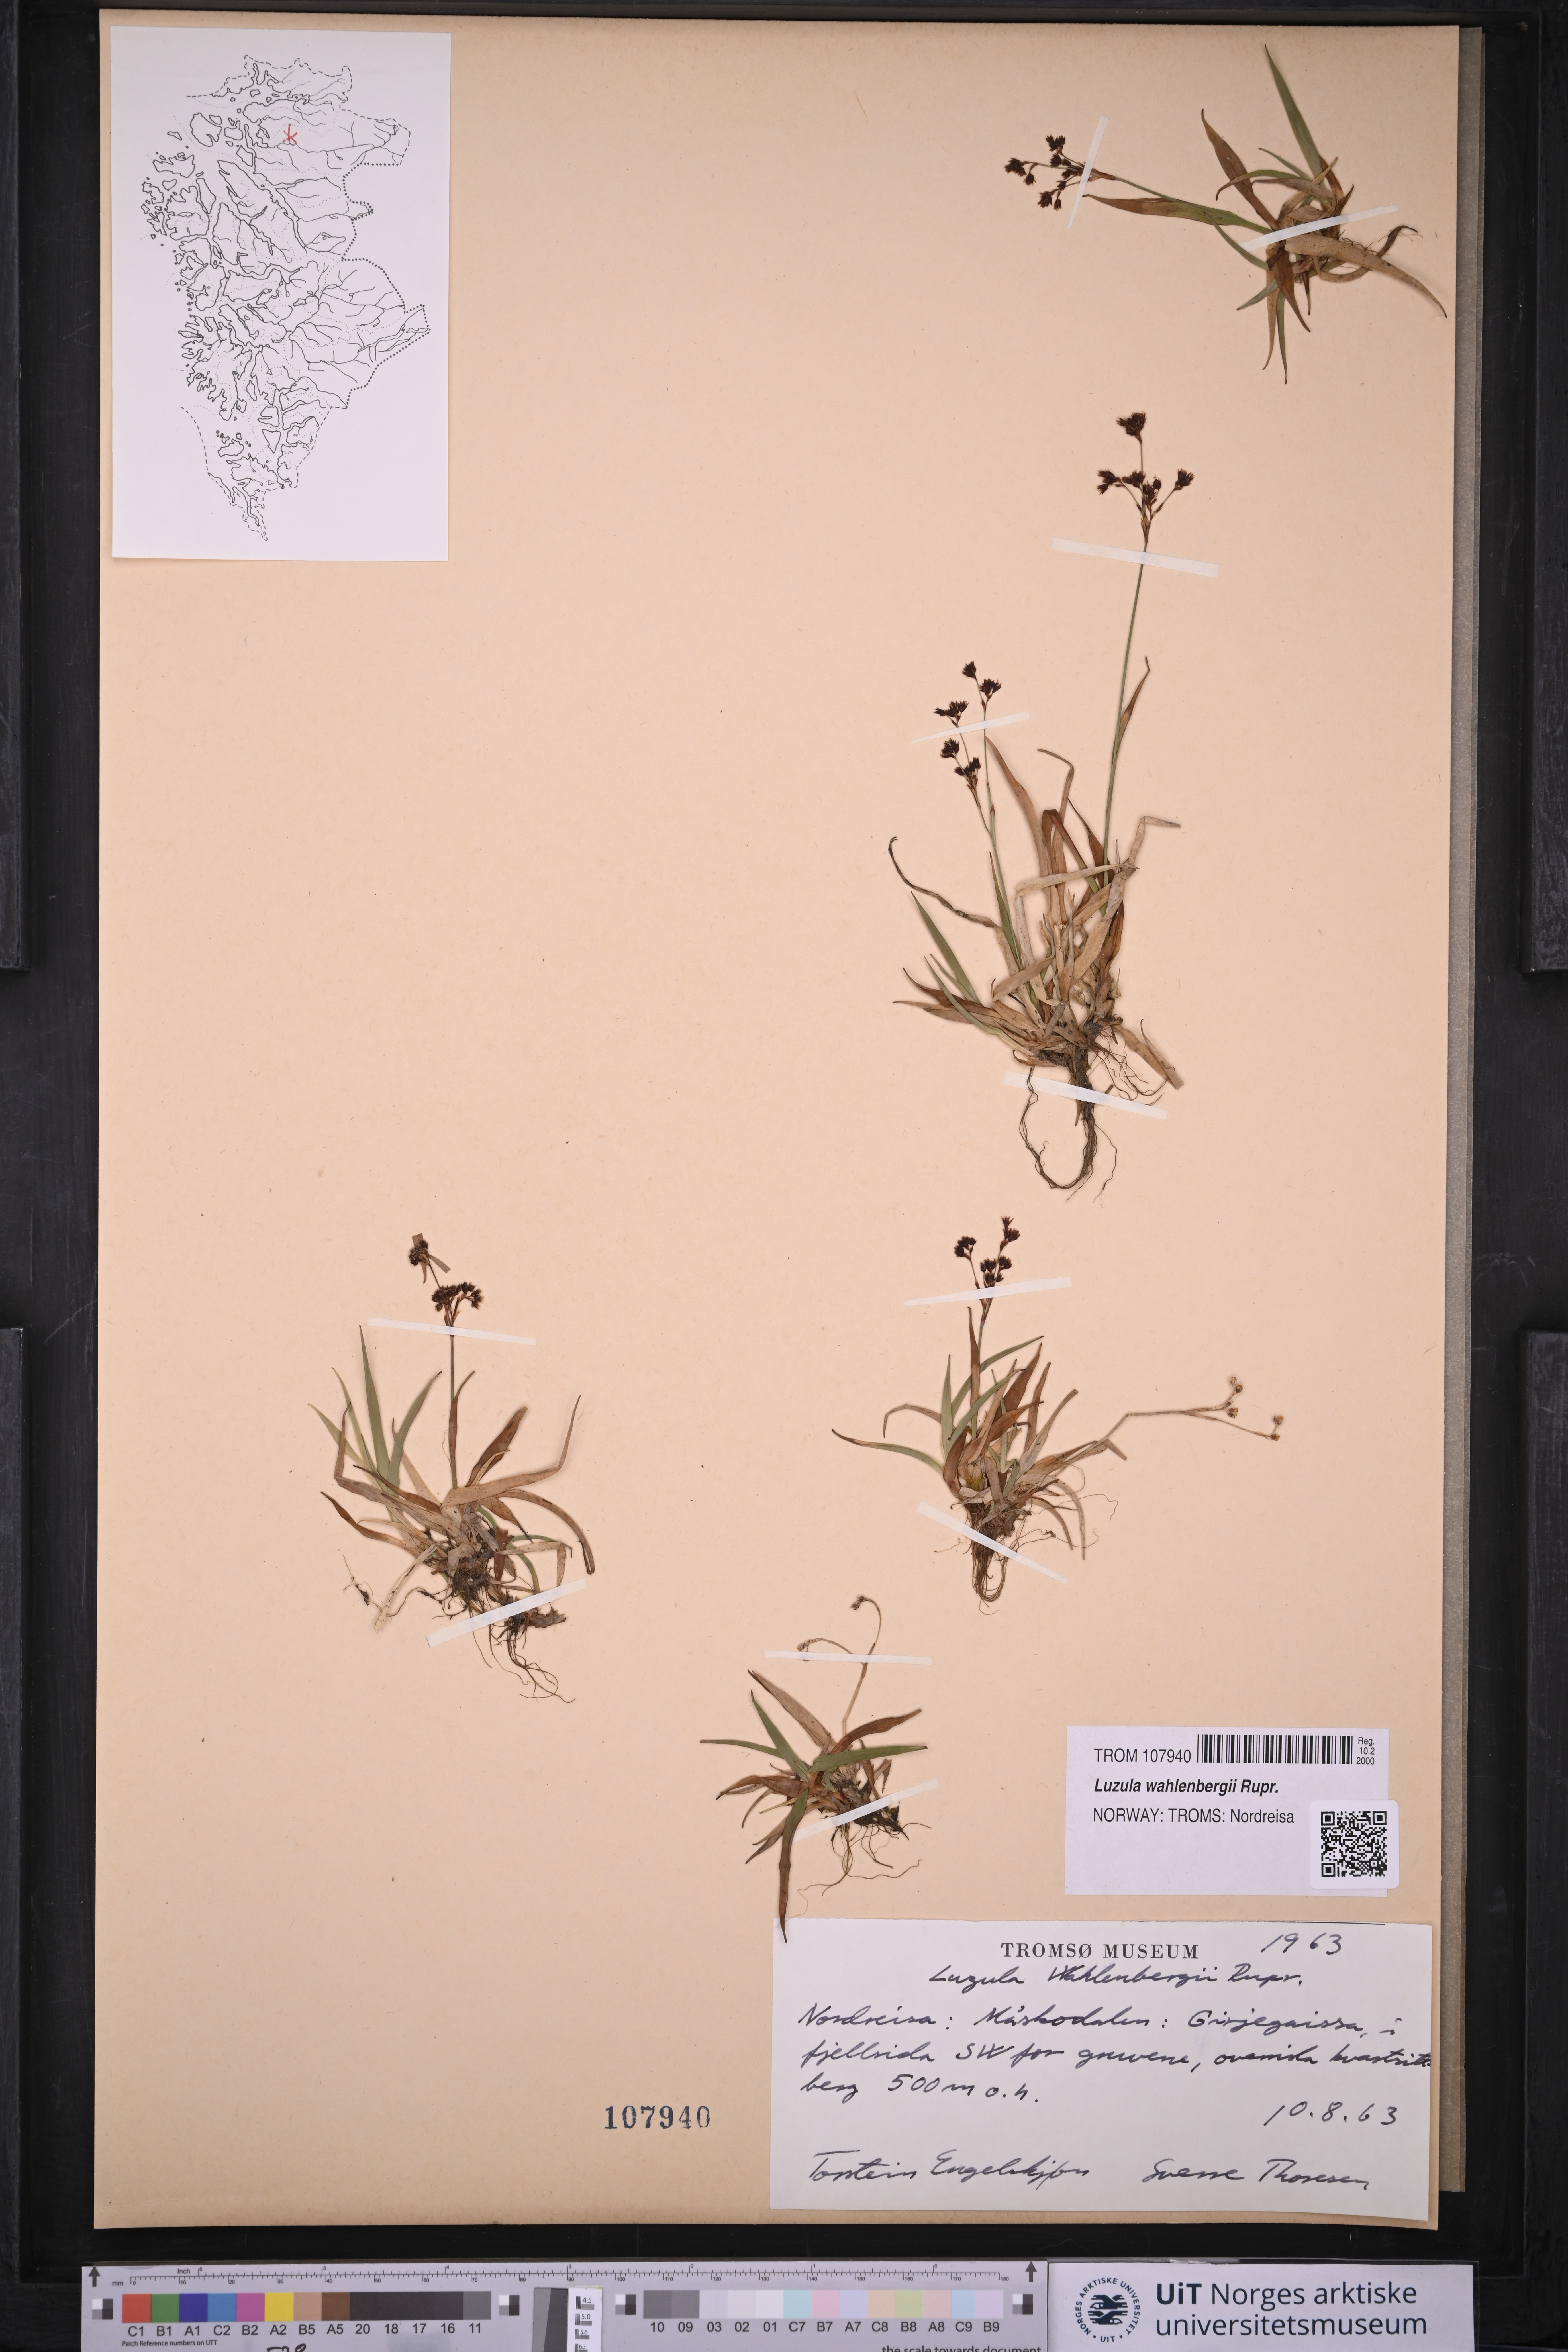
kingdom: Plantae
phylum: Tracheophyta
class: Liliopsida
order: Poales
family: Juncaceae
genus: Luzula
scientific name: Luzula wahlenbergii
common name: Wahlenberg's wood-rush
